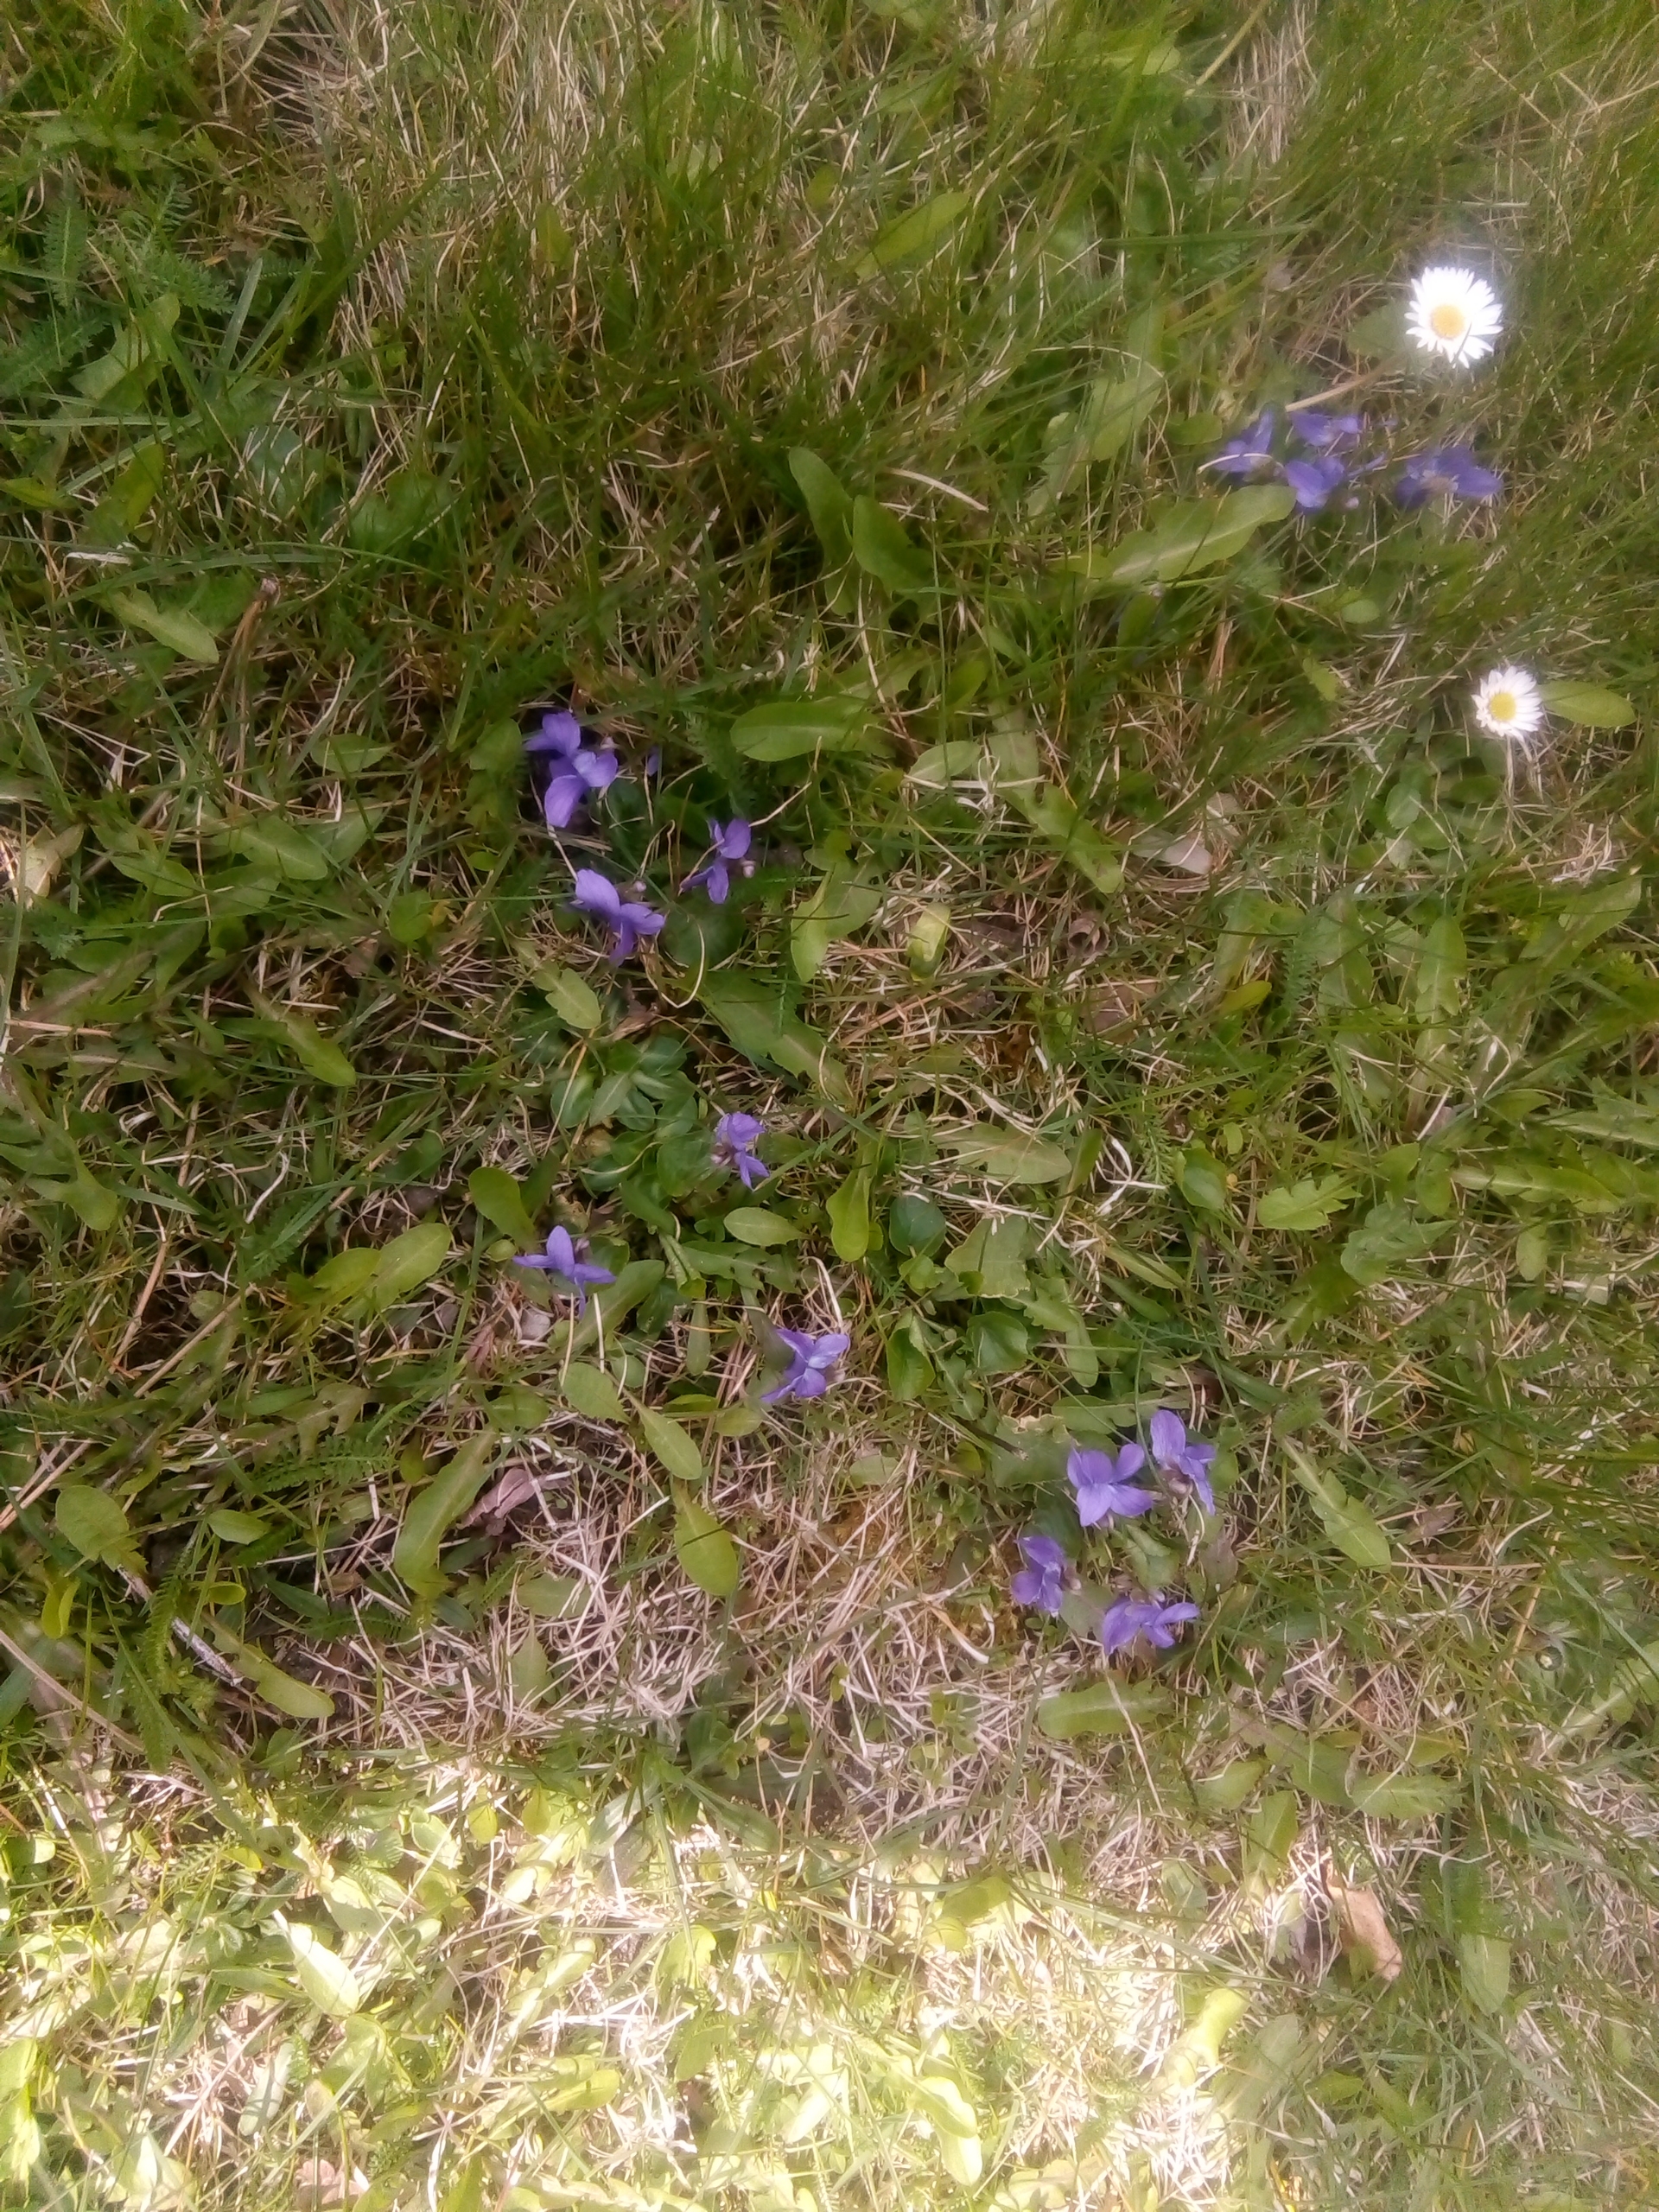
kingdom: Plantae
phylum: Tracheophyta
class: Magnoliopsida
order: Malpighiales
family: Violaceae
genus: Viola
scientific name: Viola odorata
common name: Marts-viol
